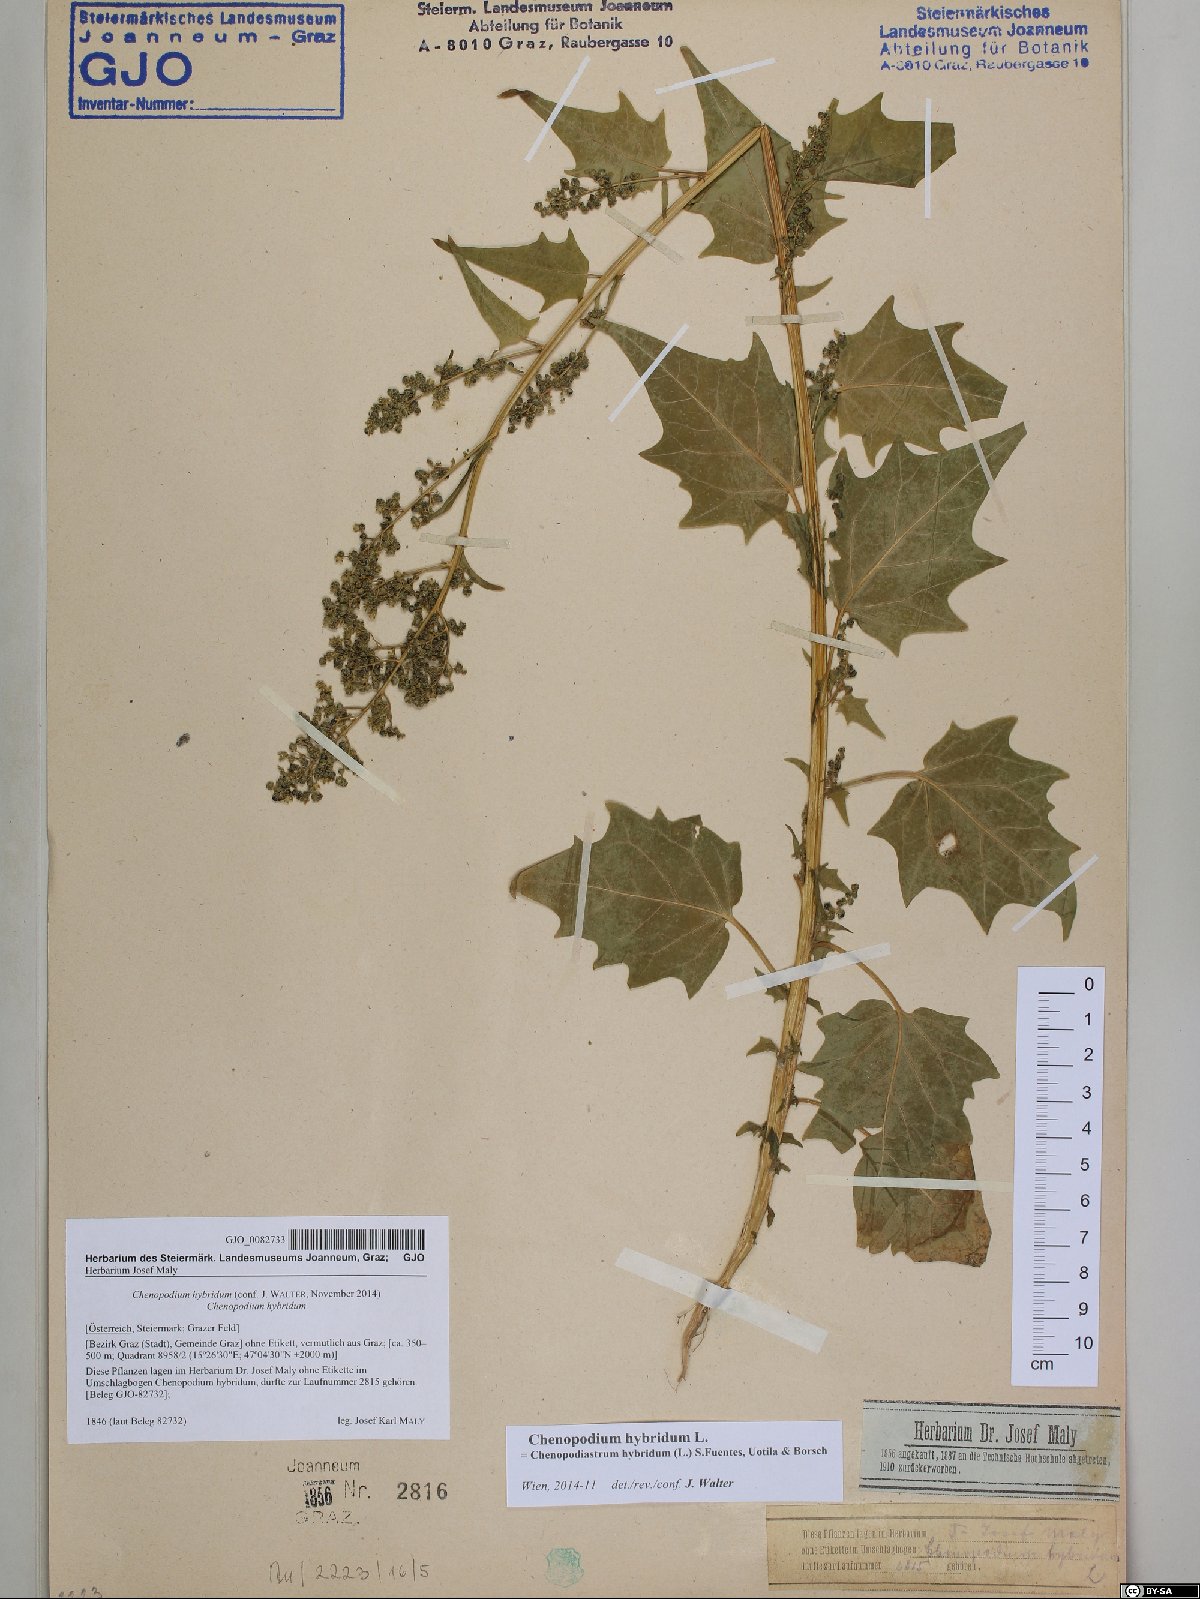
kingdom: Plantae
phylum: Tracheophyta
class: Magnoliopsida
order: Caryophyllales
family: Amaranthaceae
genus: Chenopodiastrum
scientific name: Chenopodiastrum hybridum
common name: Mapleleaf goosefoot
